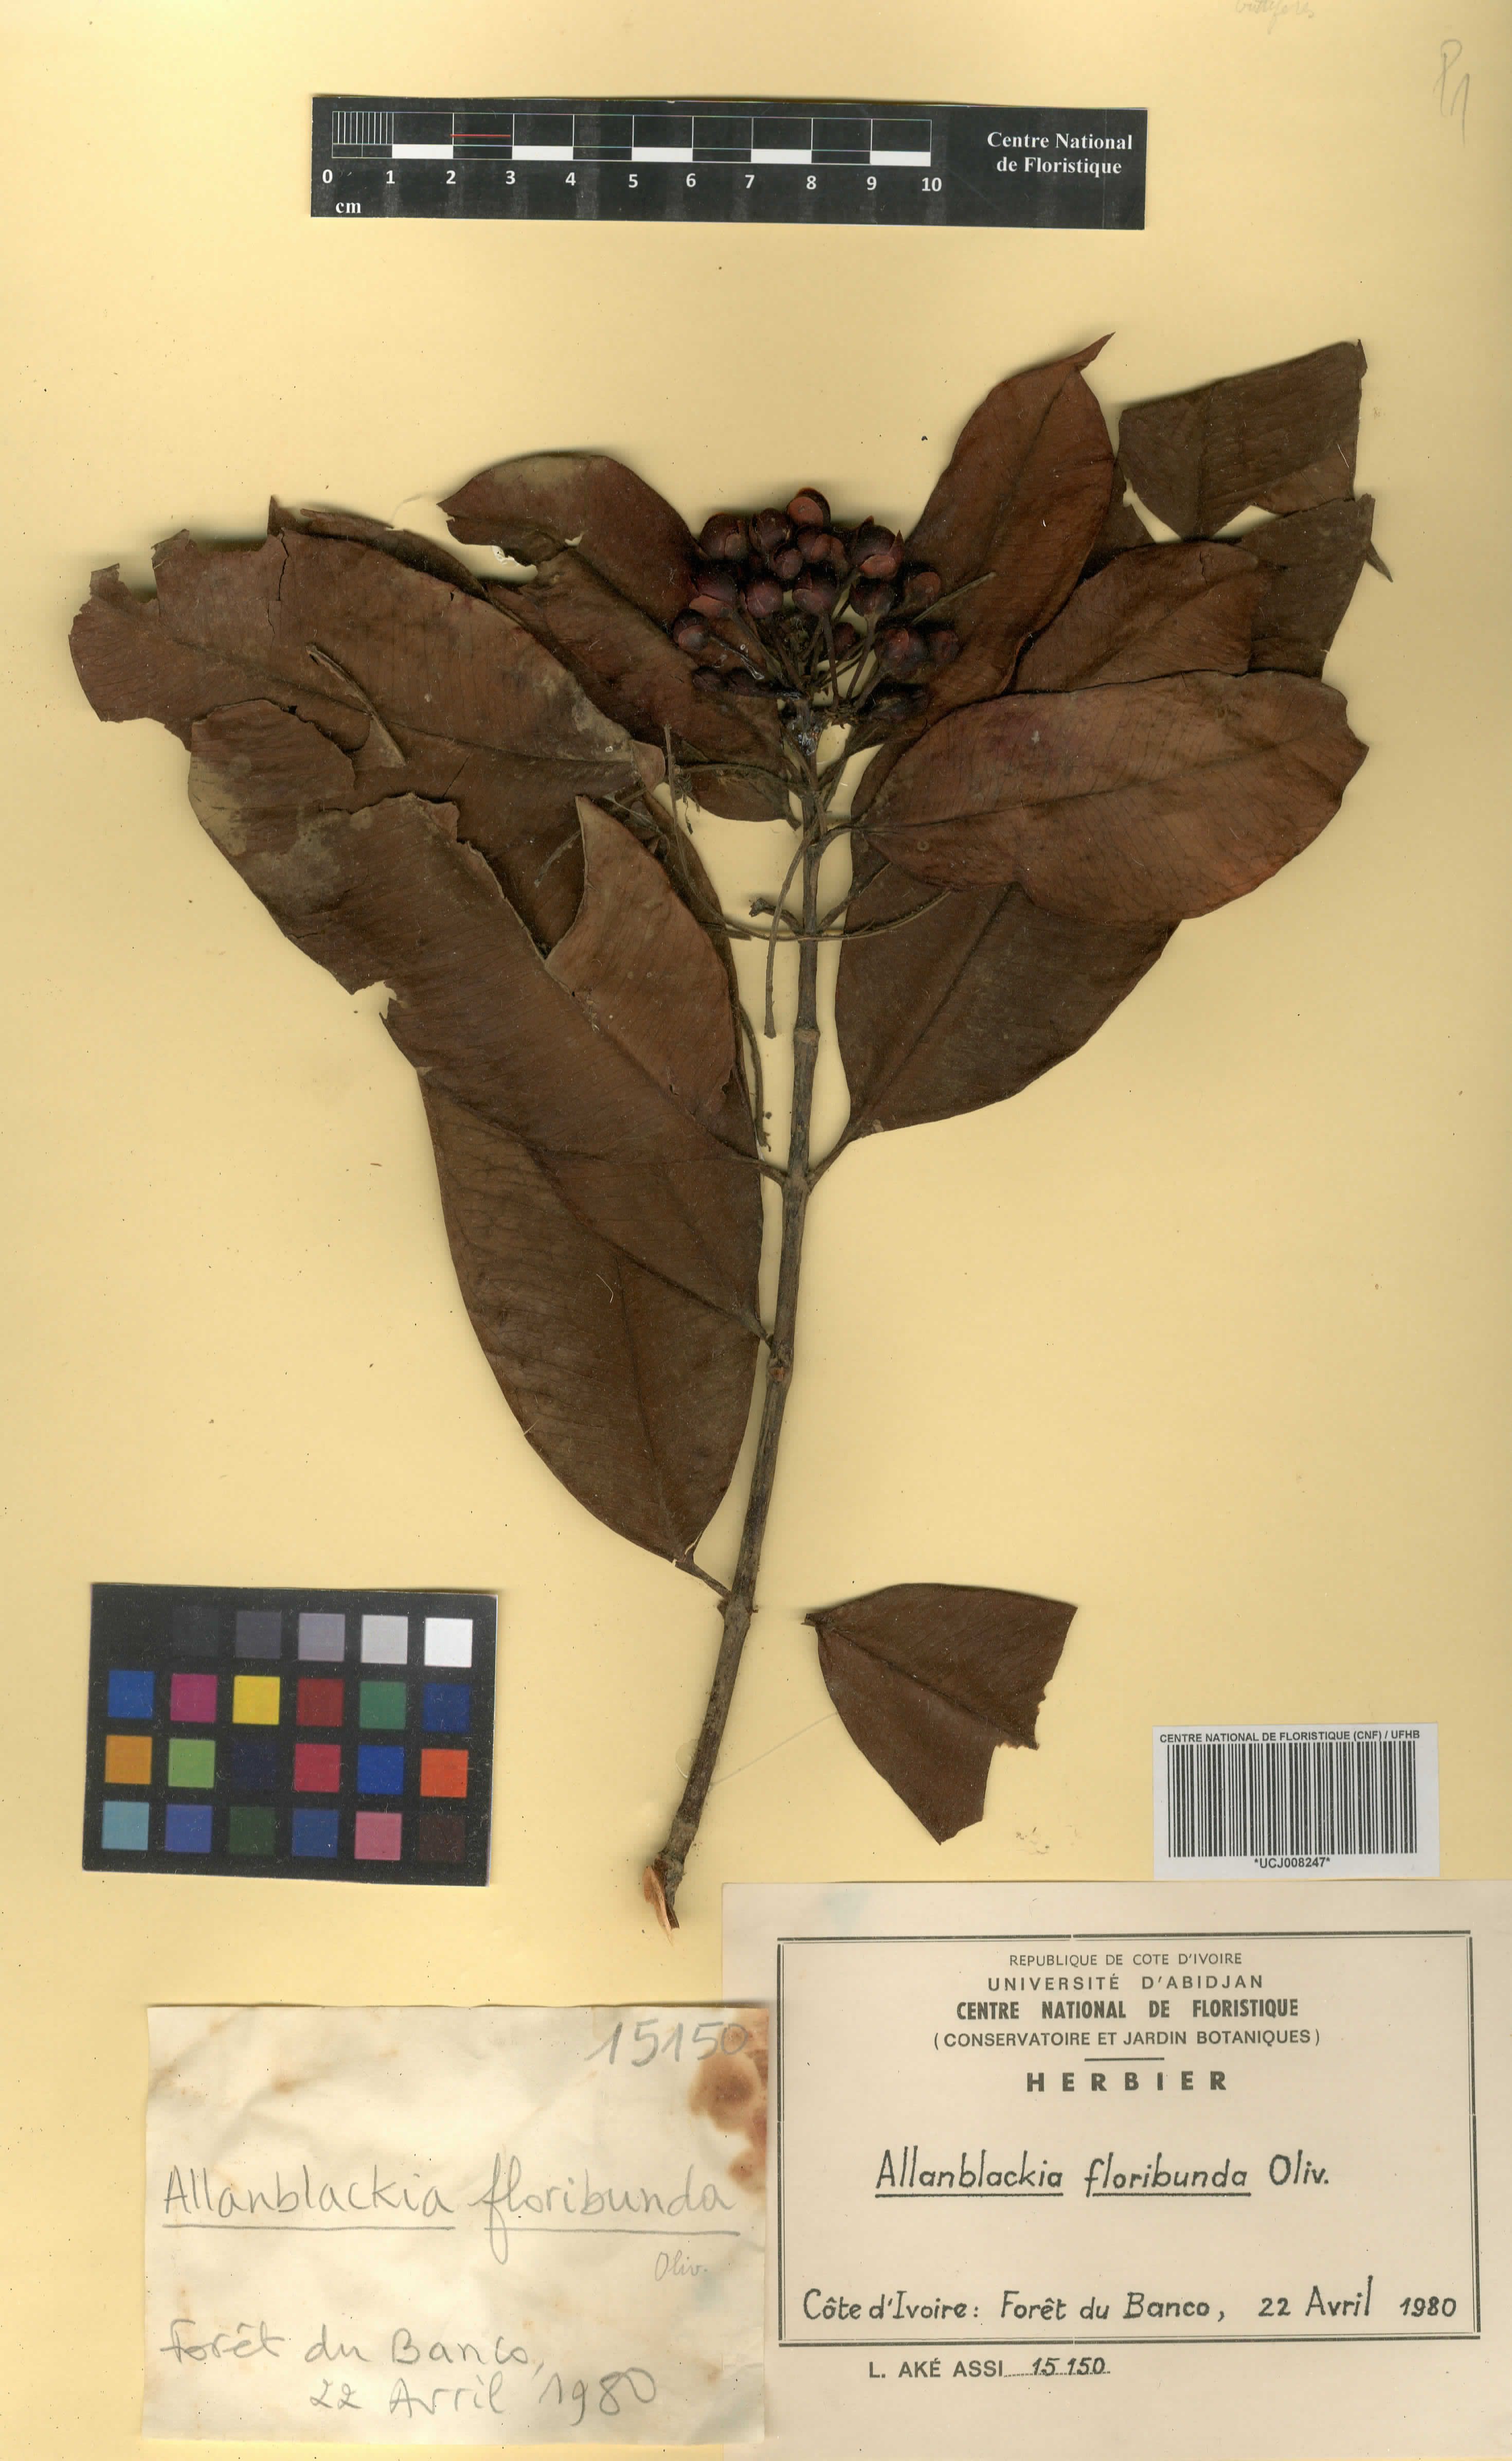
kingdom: Plantae
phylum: Tracheophyta
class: Magnoliopsida
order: Malpighiales
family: Clusiaceae
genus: Allanblackia
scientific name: Allanblackia floribunda
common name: Tallow tree
